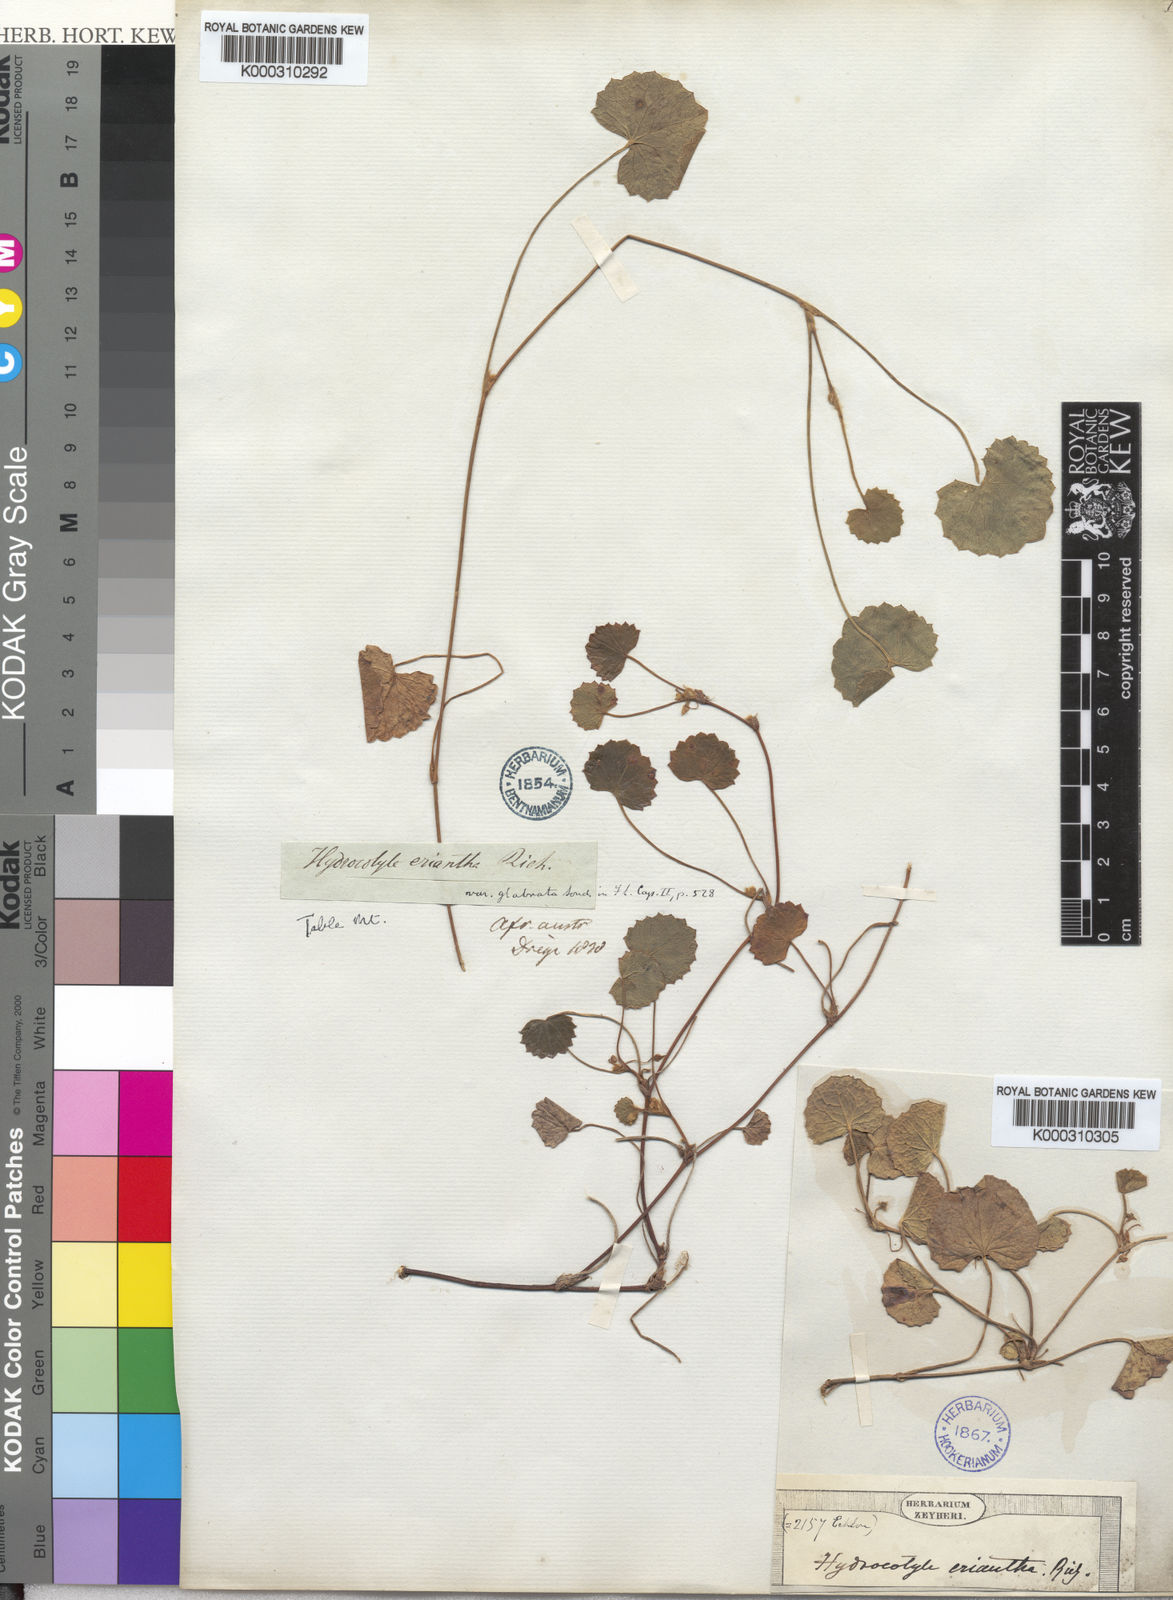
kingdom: Plantae
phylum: Tracheophyta
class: Magnoliopsida
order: Apiales
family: Apiaceae
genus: Centella
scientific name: Centella eriantha
